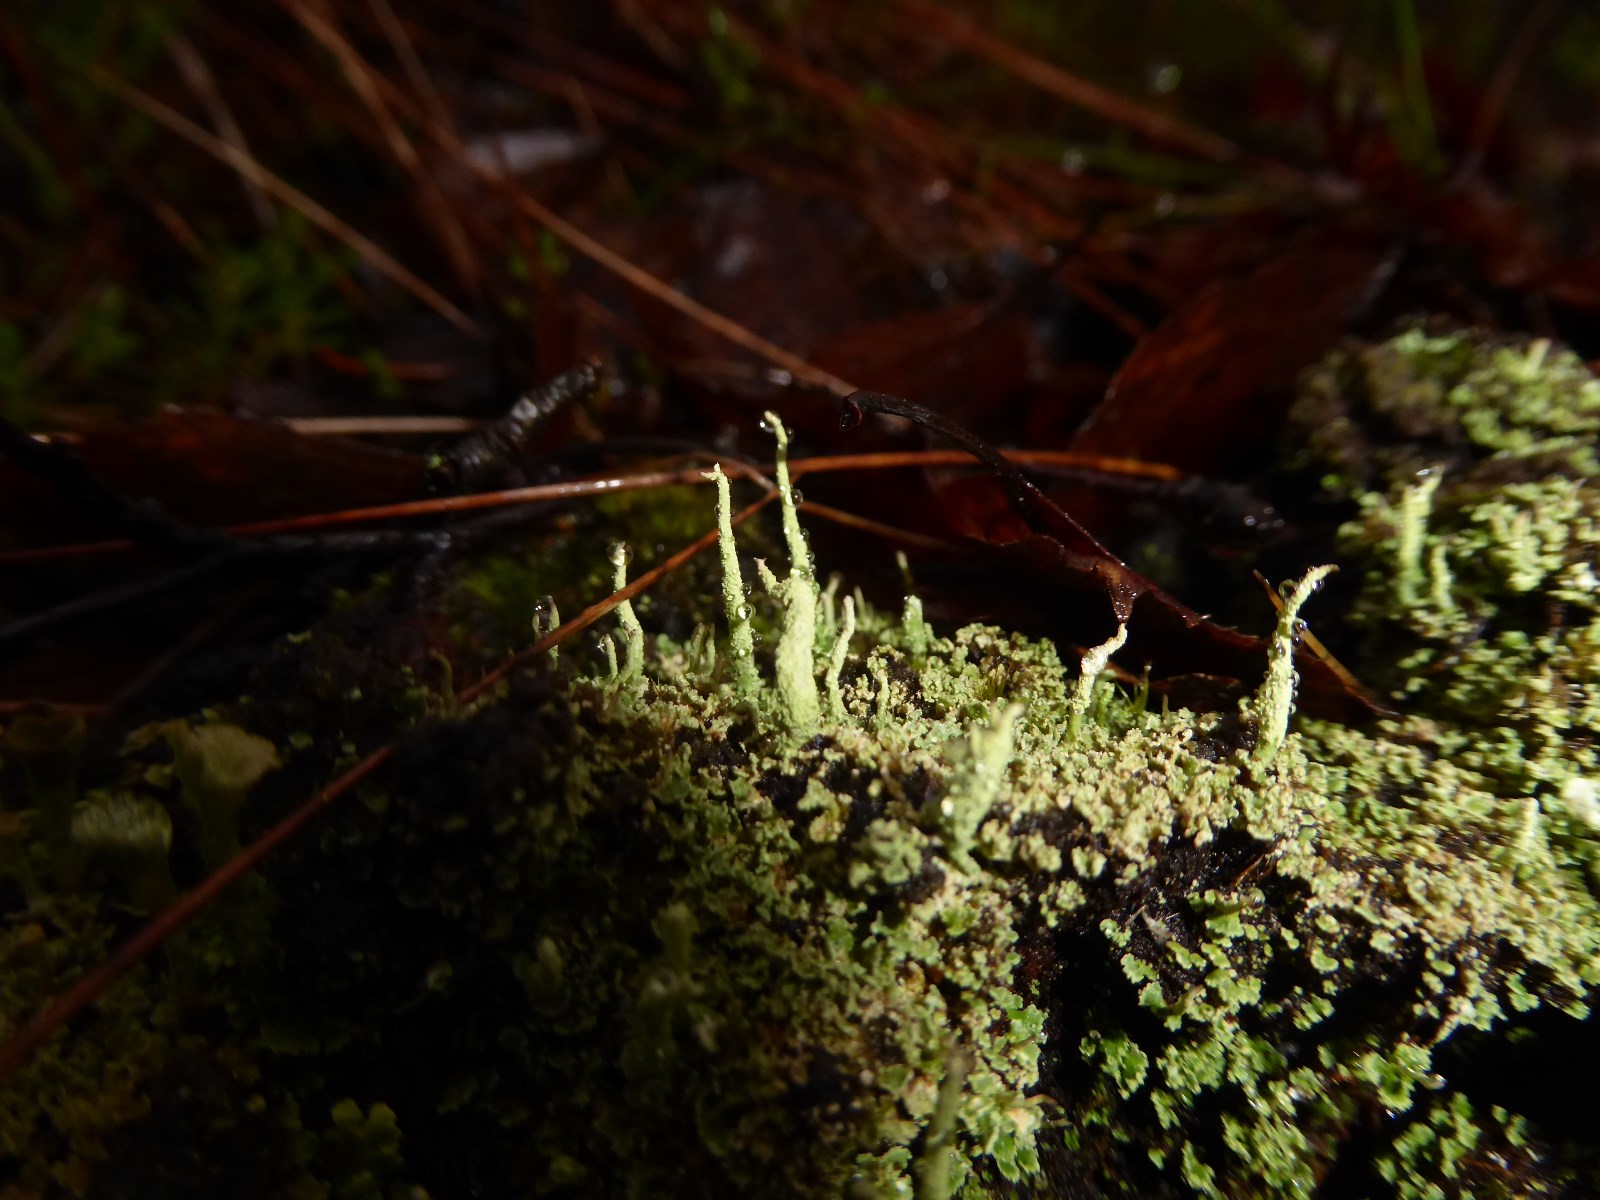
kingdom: Fungi
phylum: Ascomycota
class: Lecanoromycetes
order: Lecanorales
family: Cladoniaceae
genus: Cladonia
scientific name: Cladonia coniocraea
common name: træfods-bægerlav
